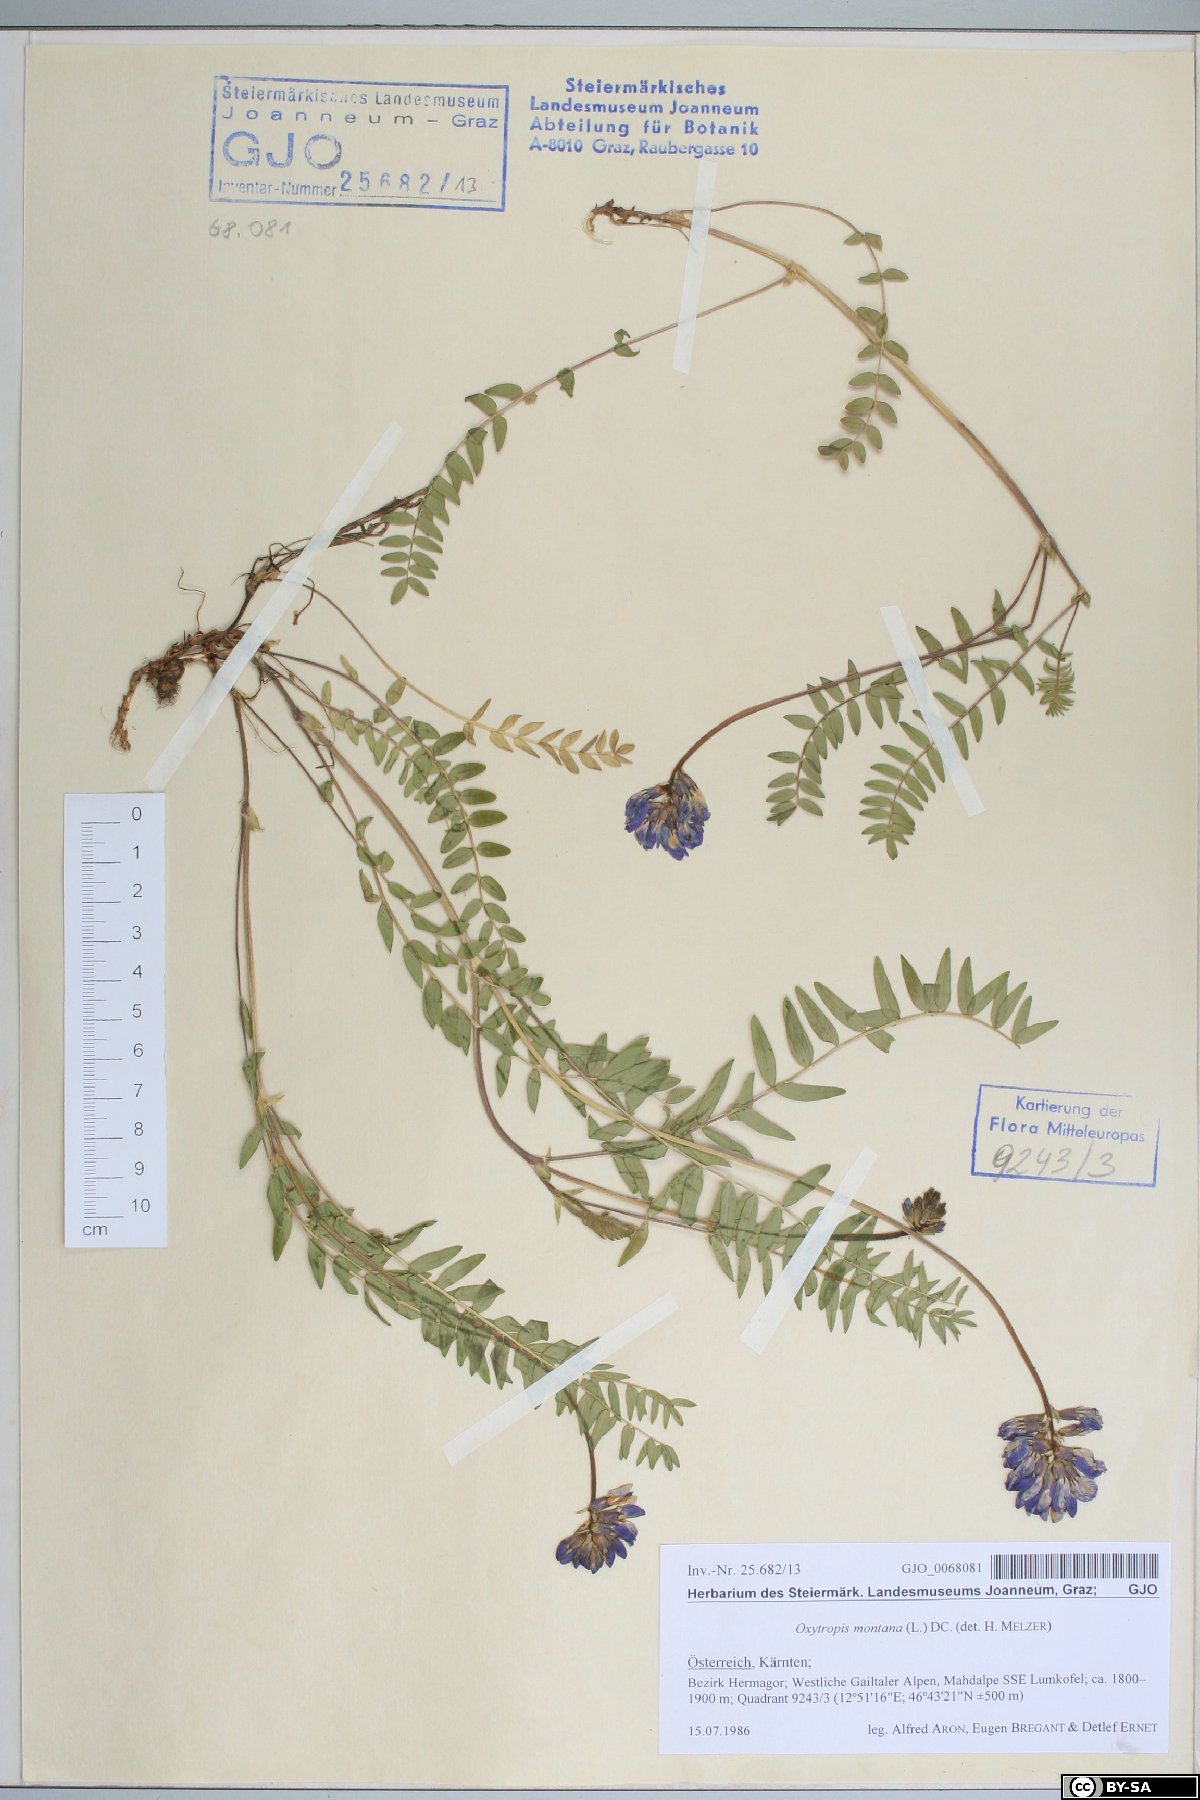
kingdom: Plantae
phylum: Tracheophyta
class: Magnoliopsida
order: Fabales
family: Fabaceae
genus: Oxytropis
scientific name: Oxytropis montana
